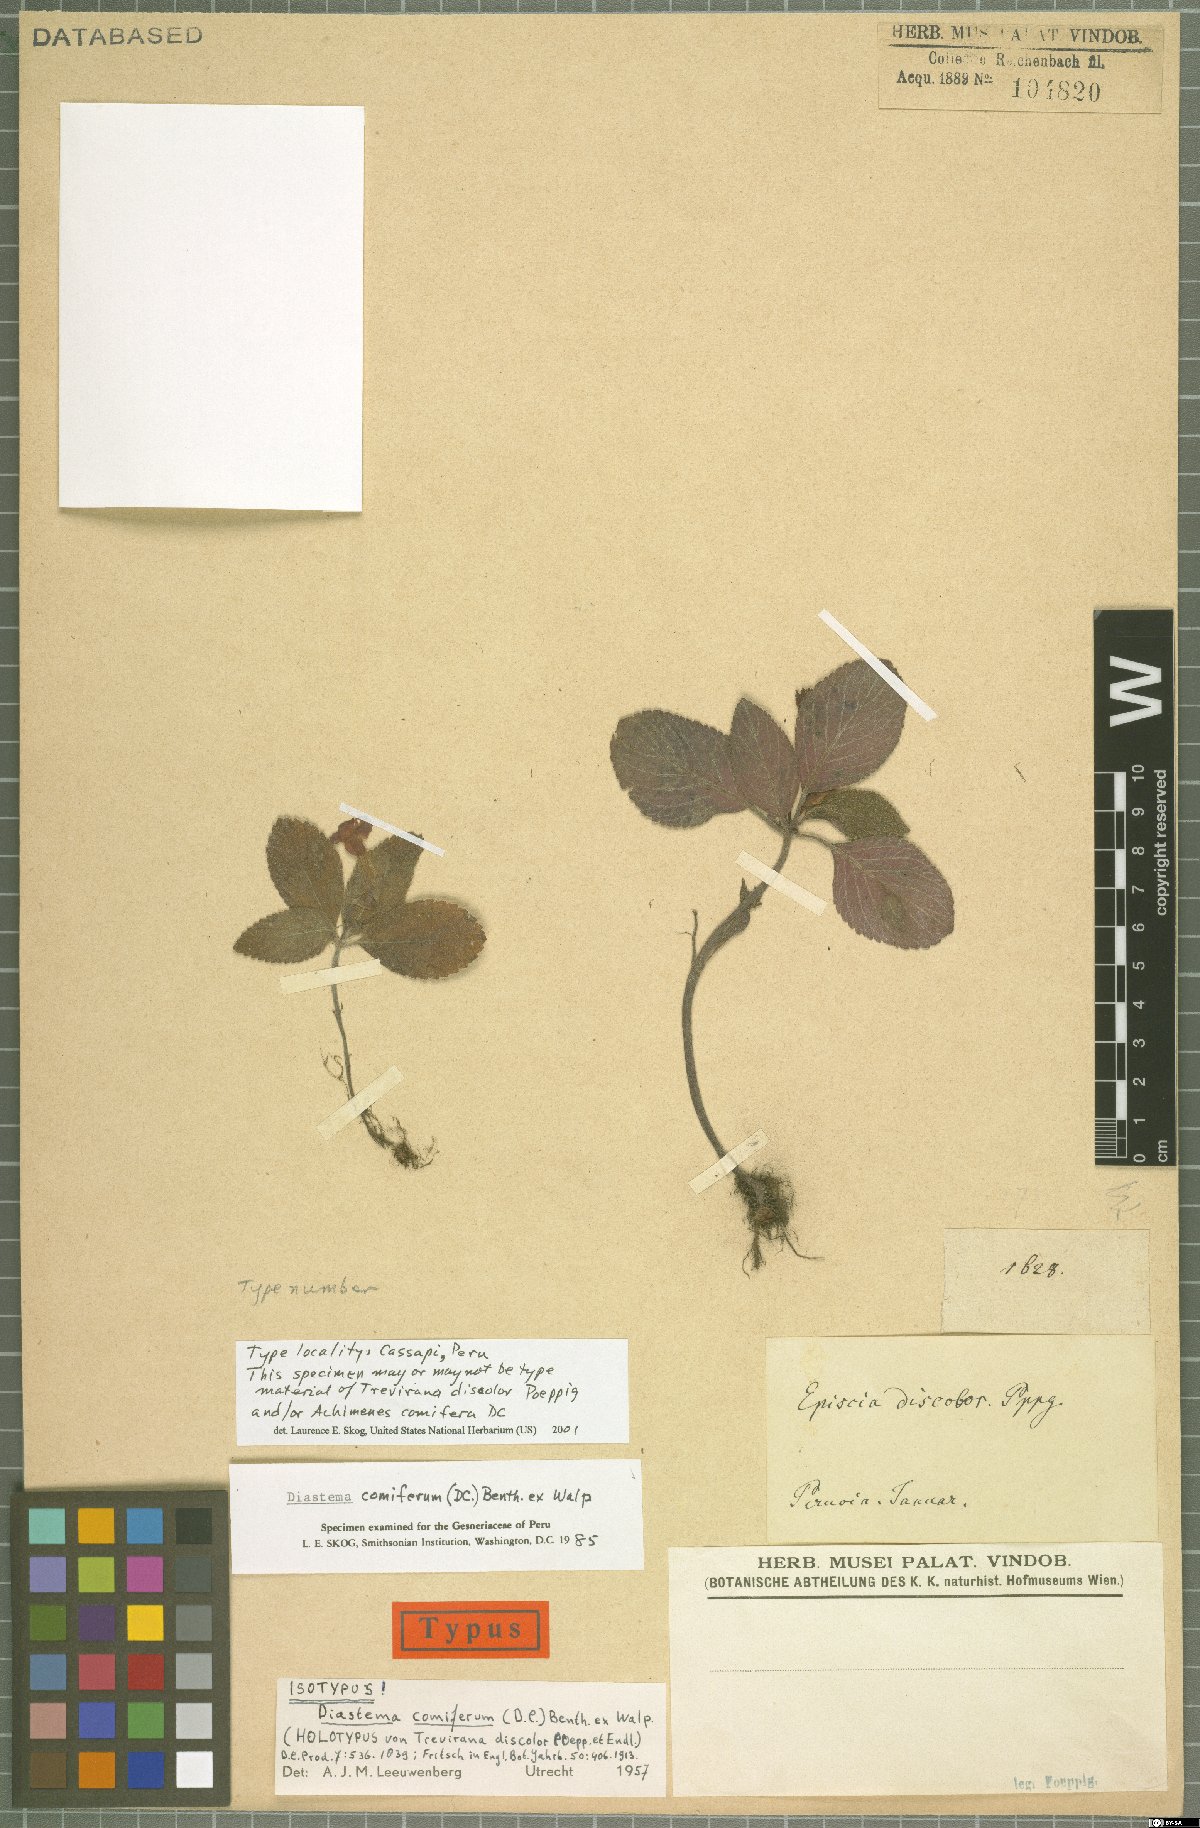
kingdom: Plantae
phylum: Tracheophyta
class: Magnoliopsida
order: Lamiales
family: Gesneriaceae
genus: Diastema
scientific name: Diastema comiferum
